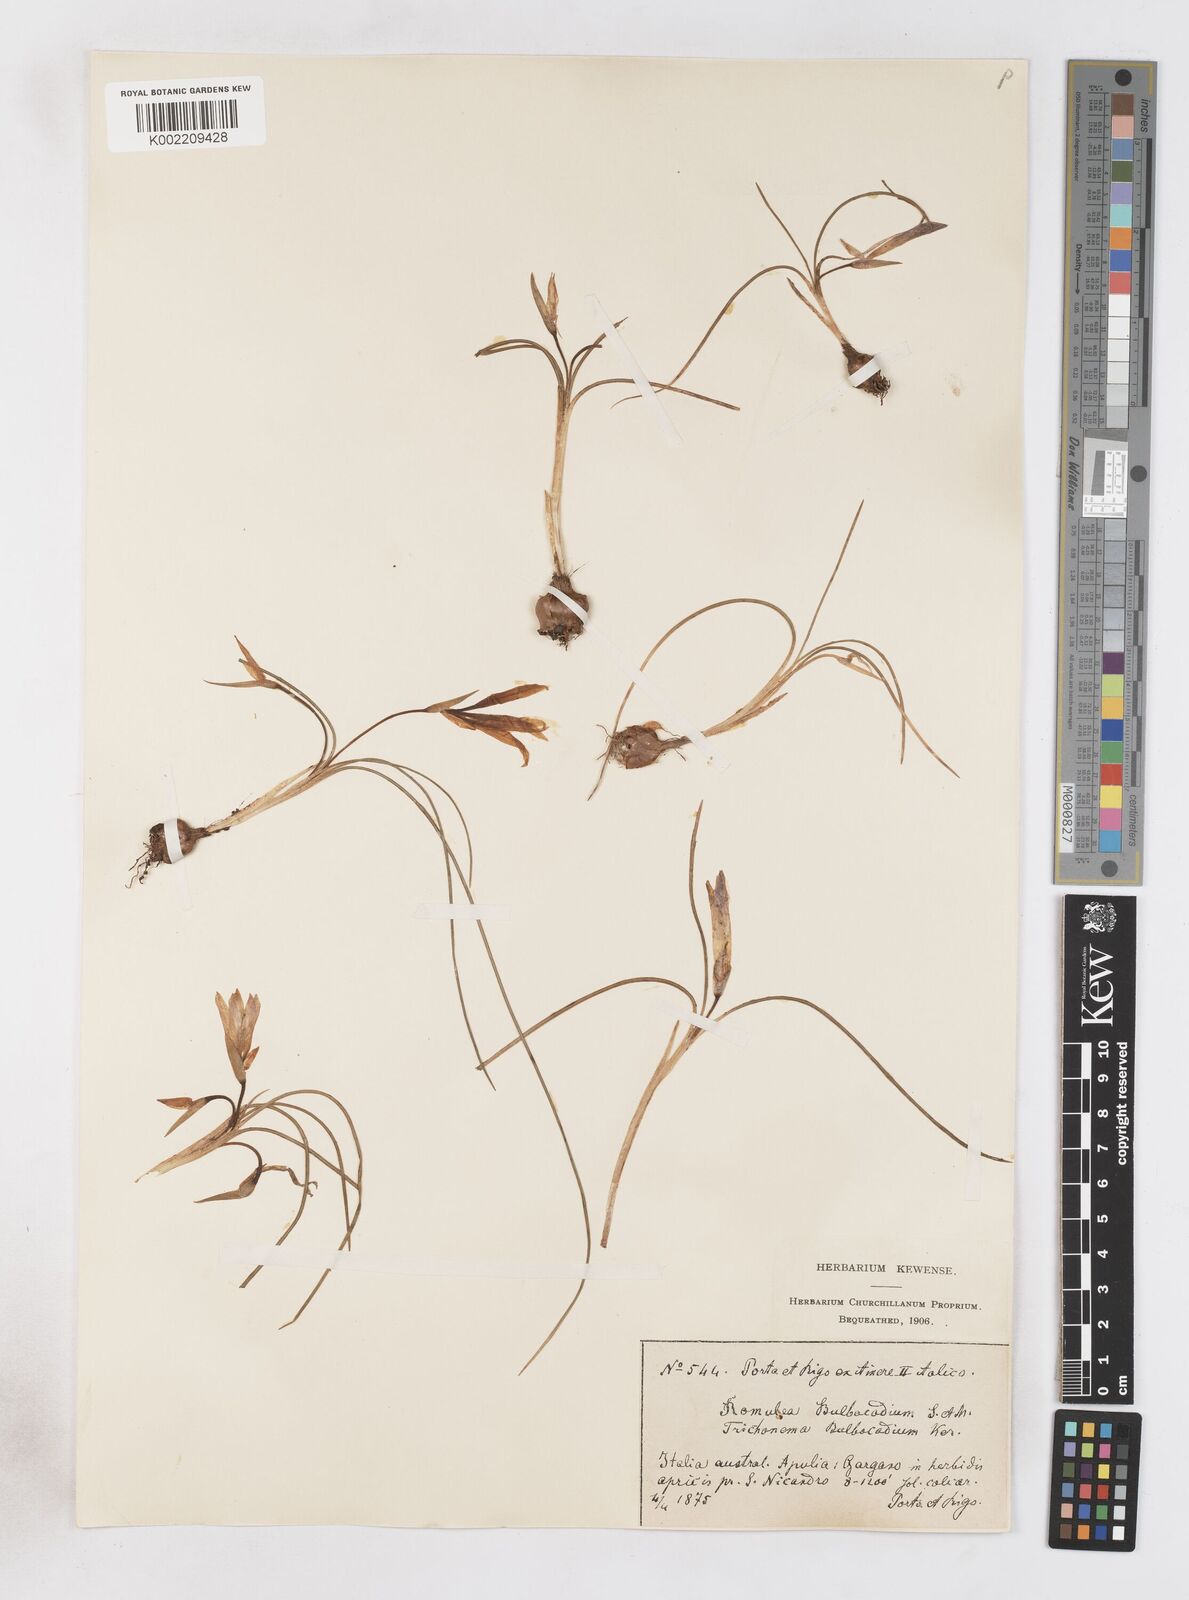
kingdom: Plantae
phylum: Tracheophyta
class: Liliopsida
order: Asparagales
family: Iridaceae
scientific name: Iridaceae
